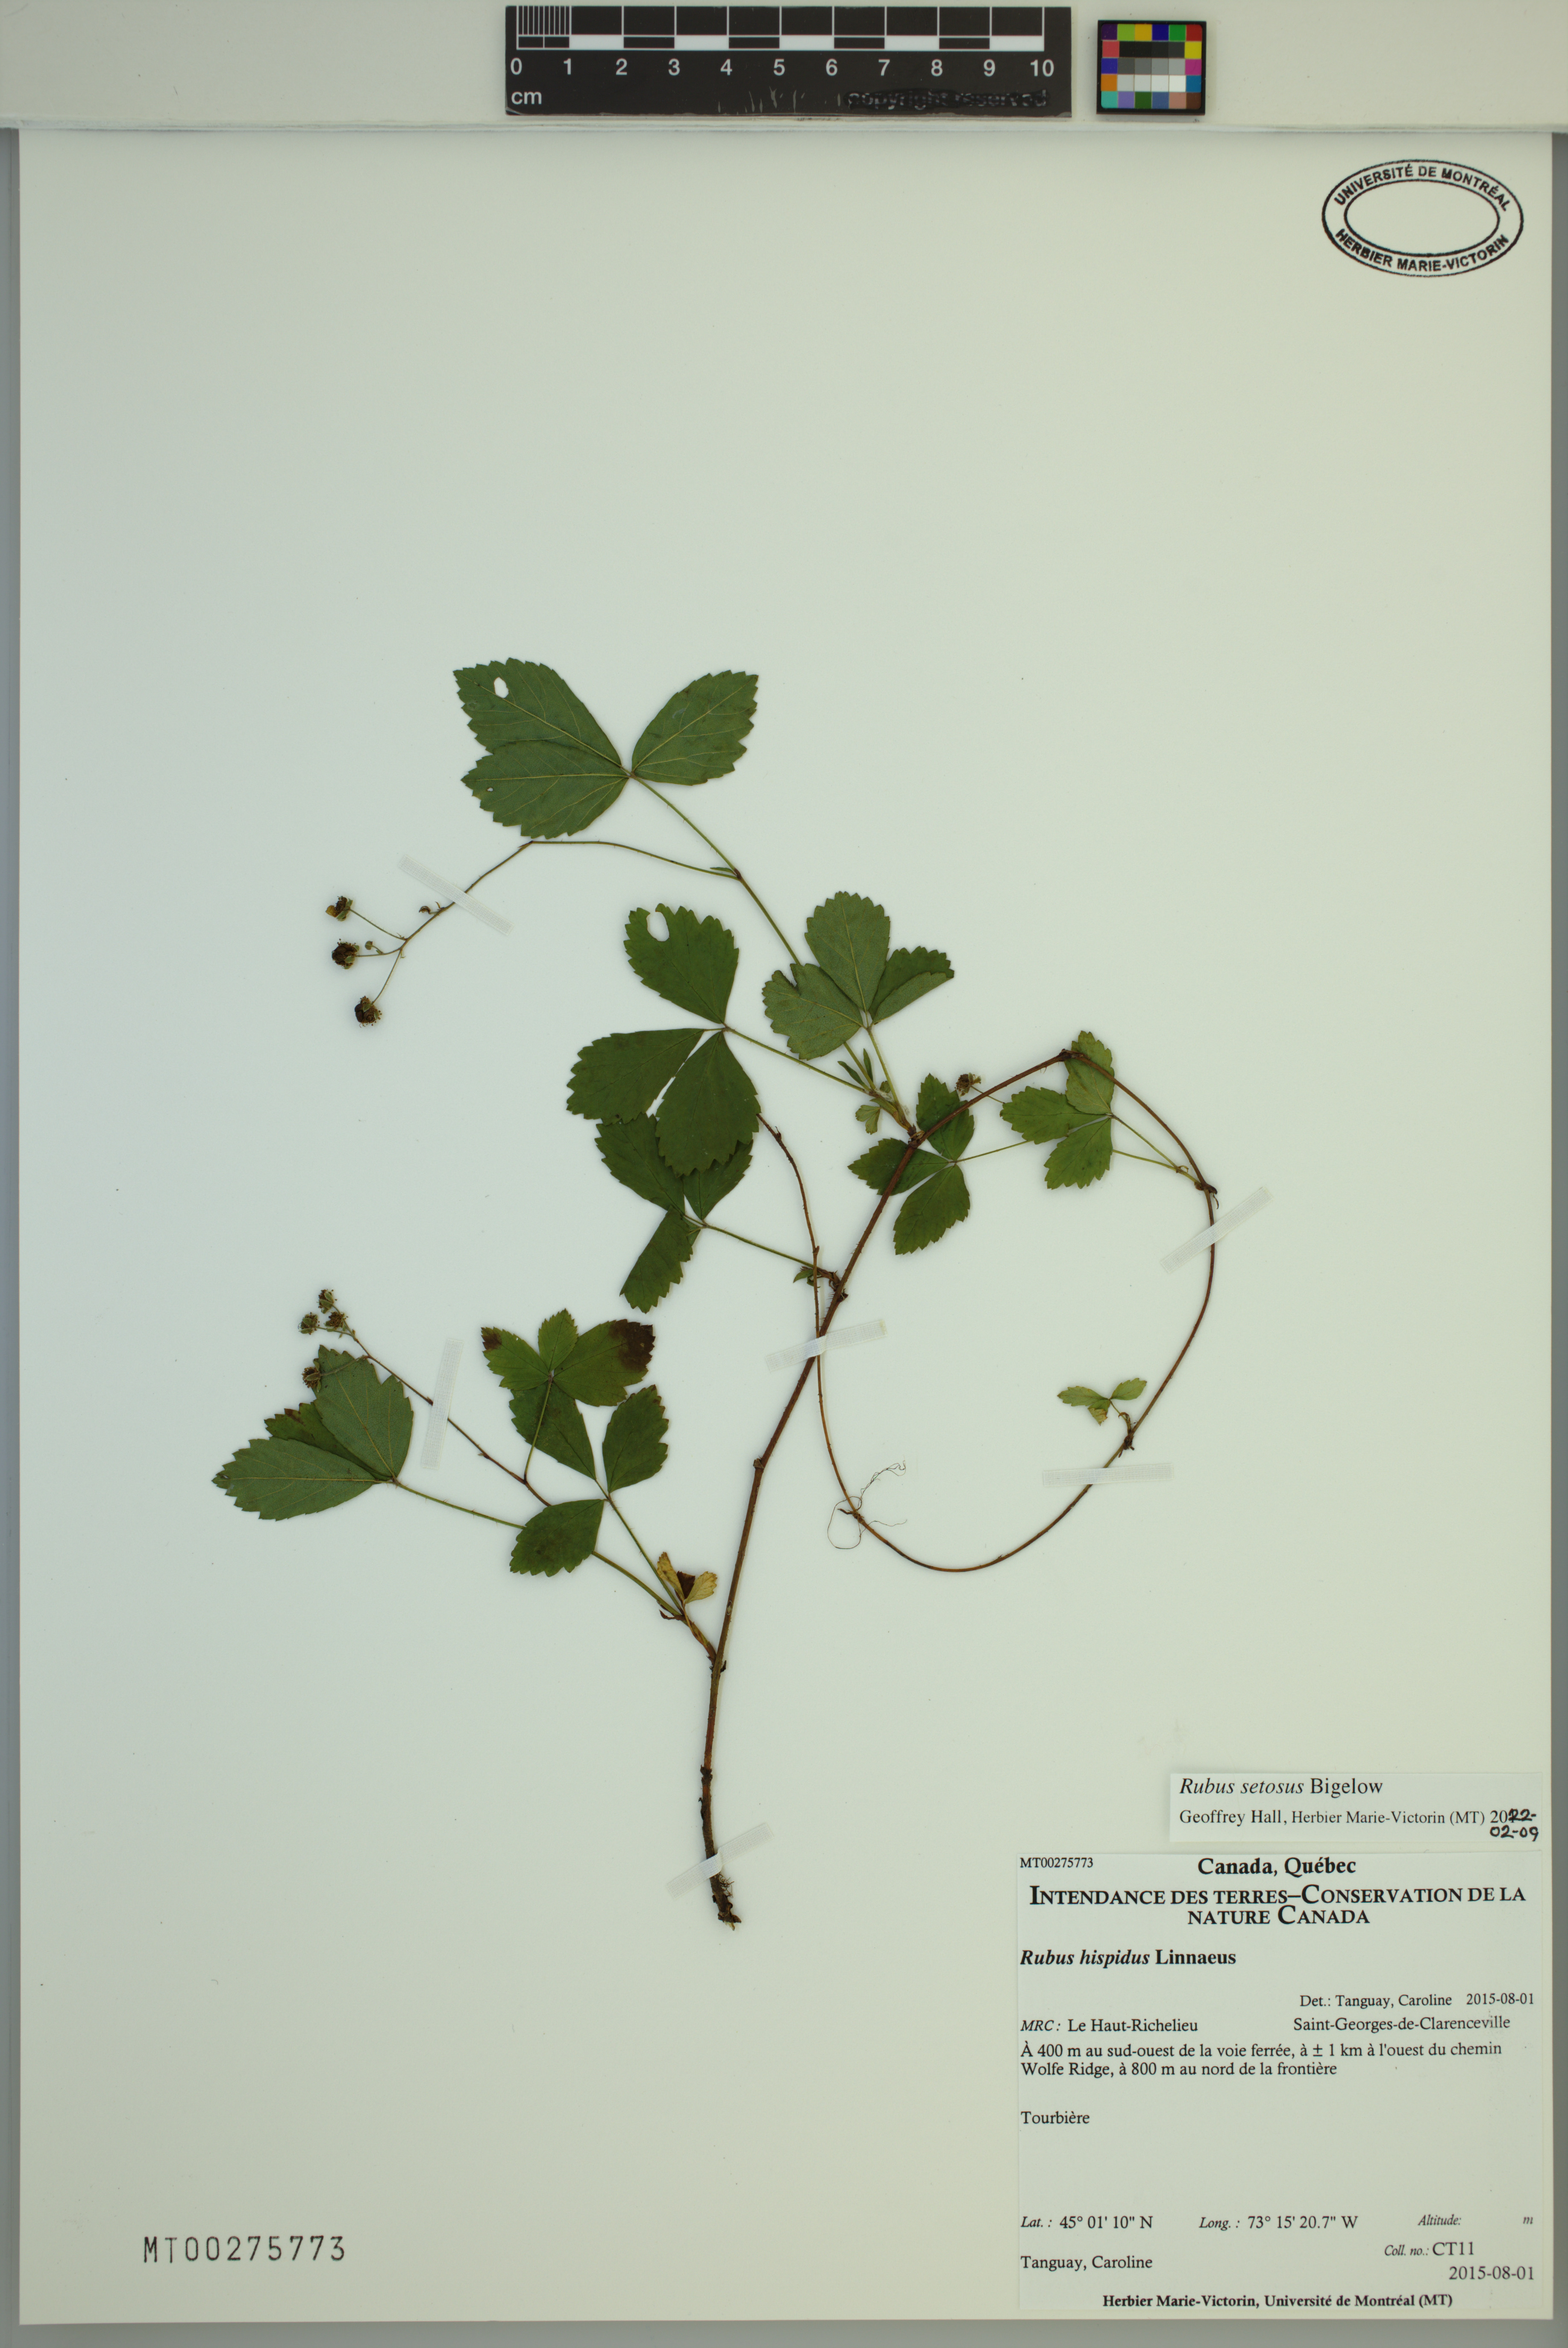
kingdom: Plantae
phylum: Tracheophyta
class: Magnoliopsida
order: Rosales
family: Rosaceae
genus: Rubus
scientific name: Rubus setosus
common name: Bristly blackberry
